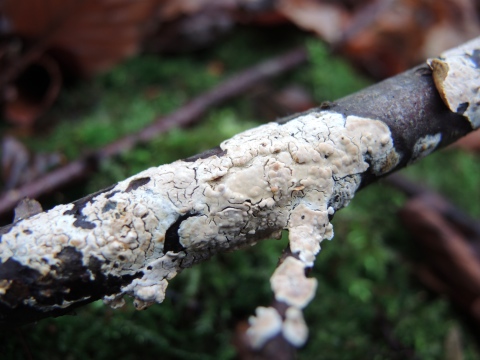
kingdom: Fungi
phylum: Basidiomycota
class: Agaricomycetes
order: Agaricales
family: Physalacriaceae
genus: Cylindrobasidium
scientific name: Cylindrobasidium evolvens
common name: sprækkehinde
